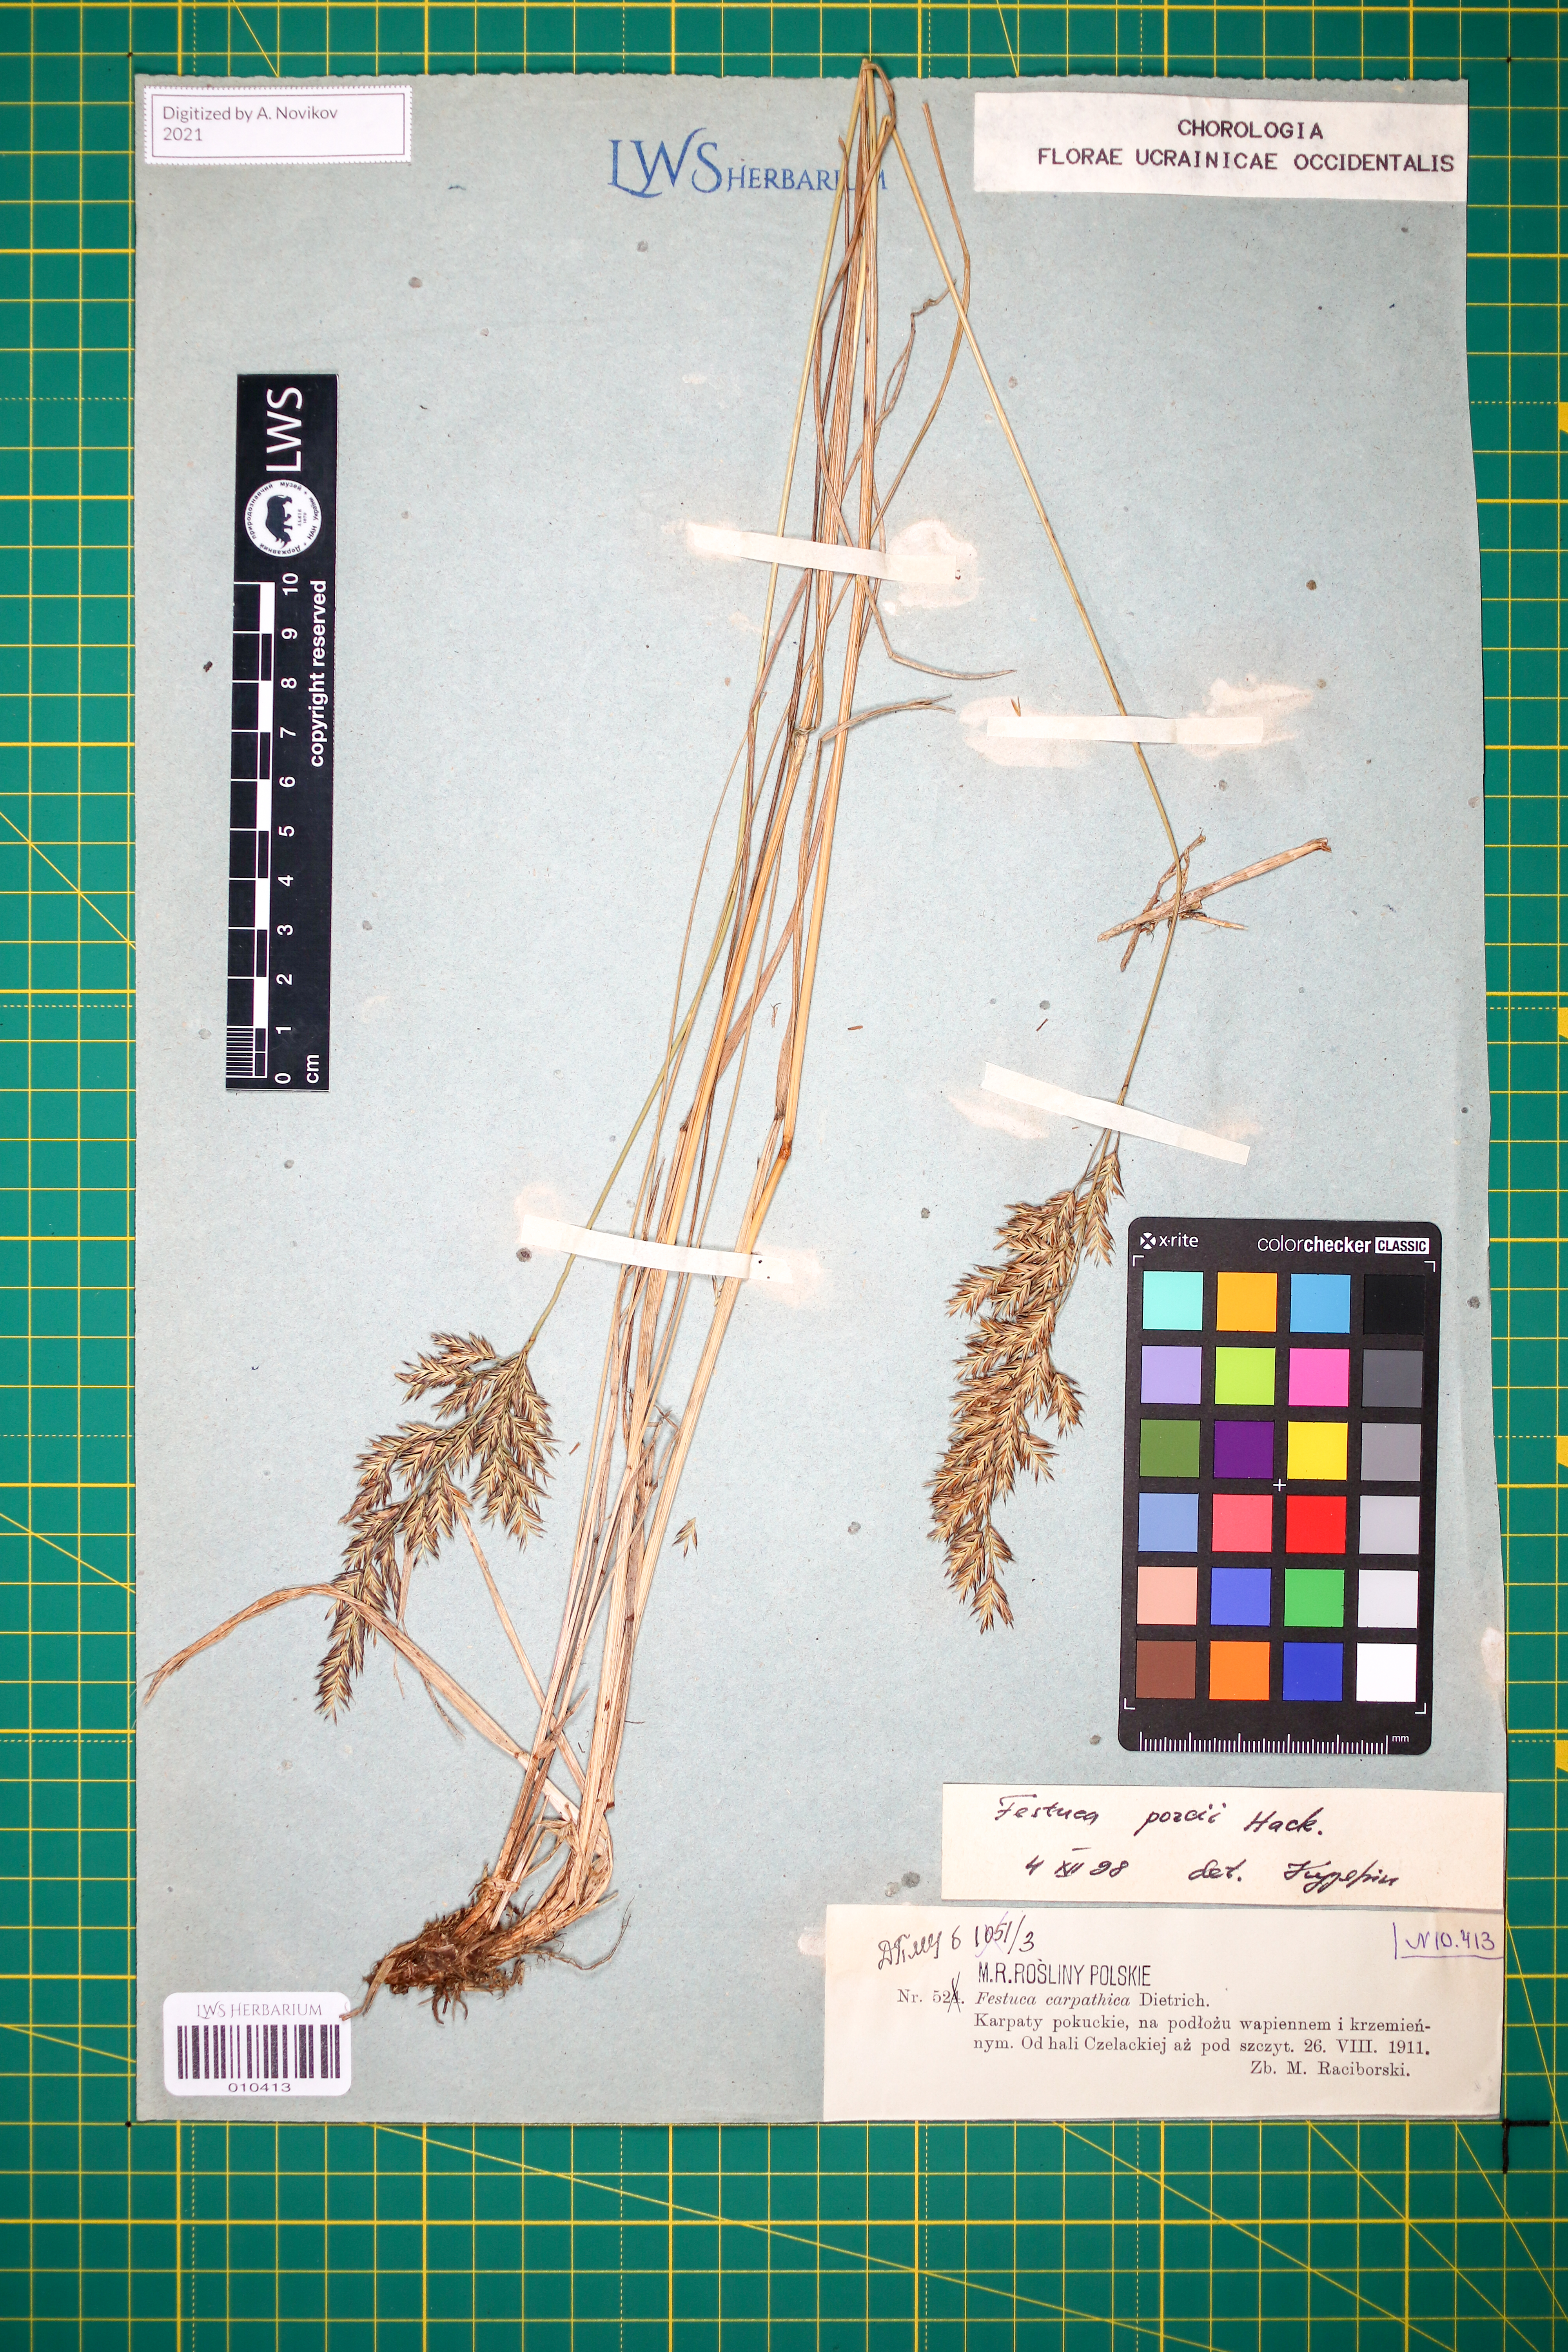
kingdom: Plantae
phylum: Tracheophyta
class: Liliopsida
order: Poales
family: Poaceae
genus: Festuca
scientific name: Festuca porcii
